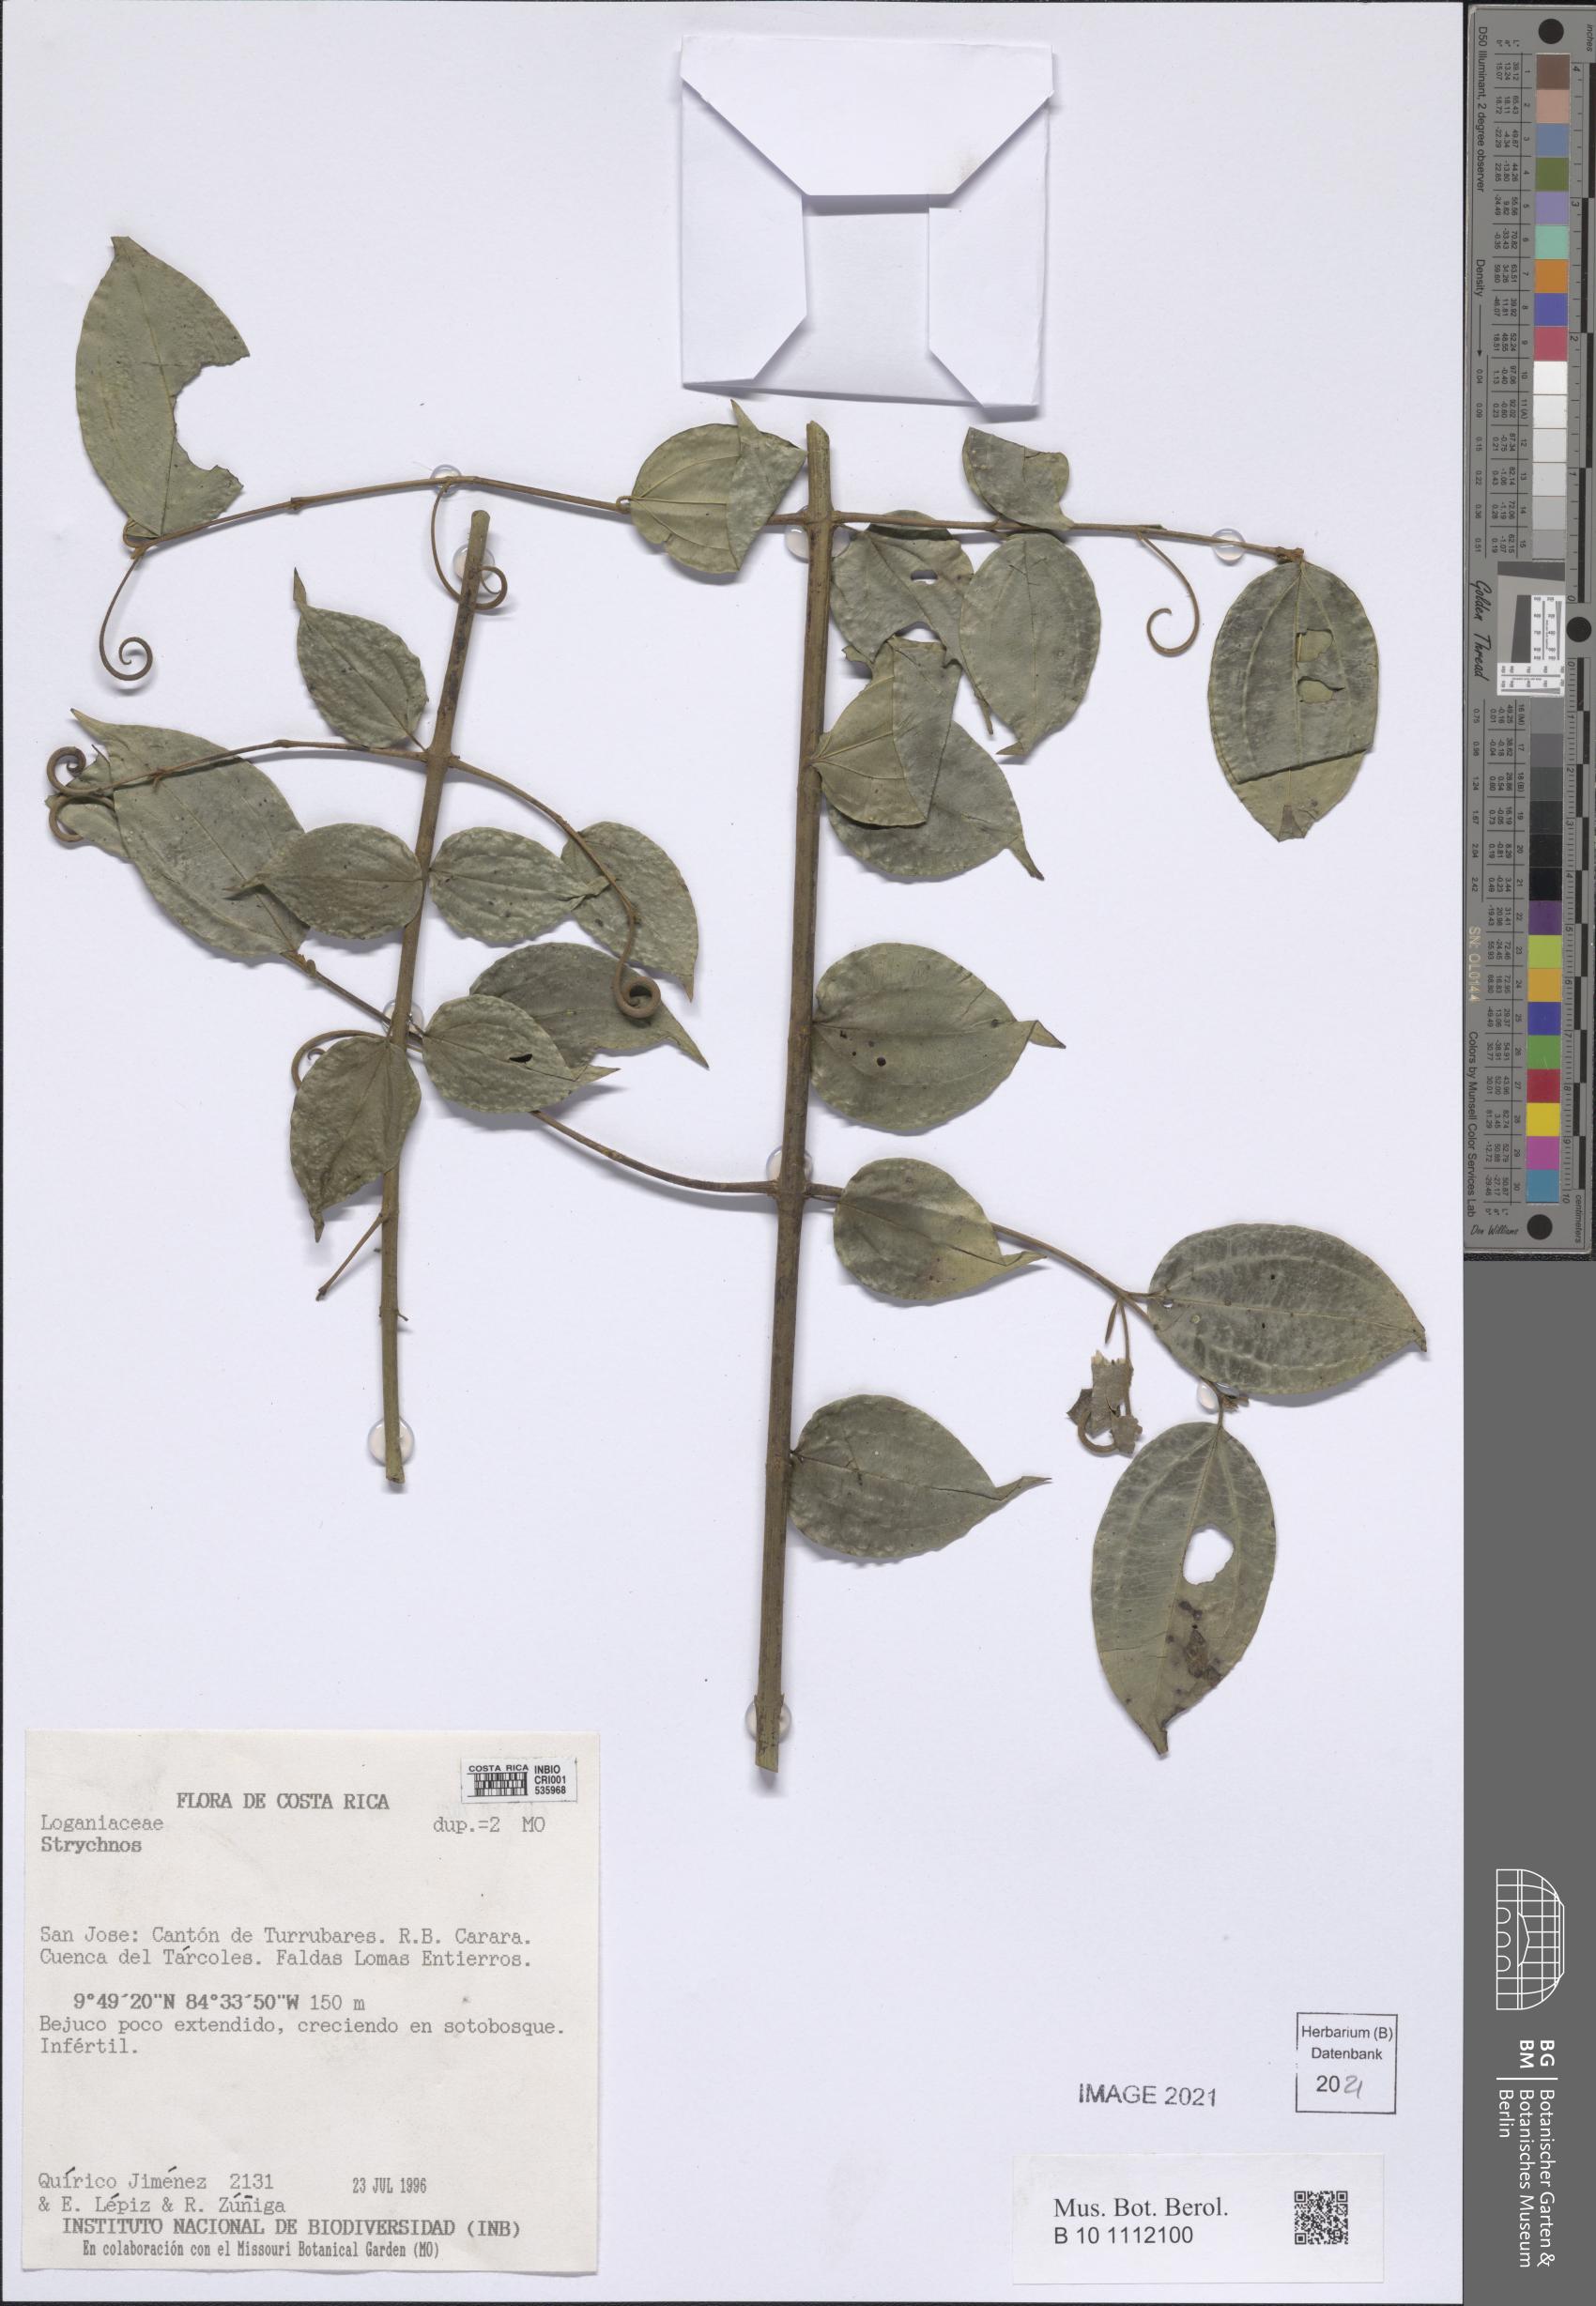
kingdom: Plantae
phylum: Tracheophyta
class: Magnoliopsida
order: Gentianales
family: Loganiaceae
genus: Strychnos
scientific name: Strychnos
